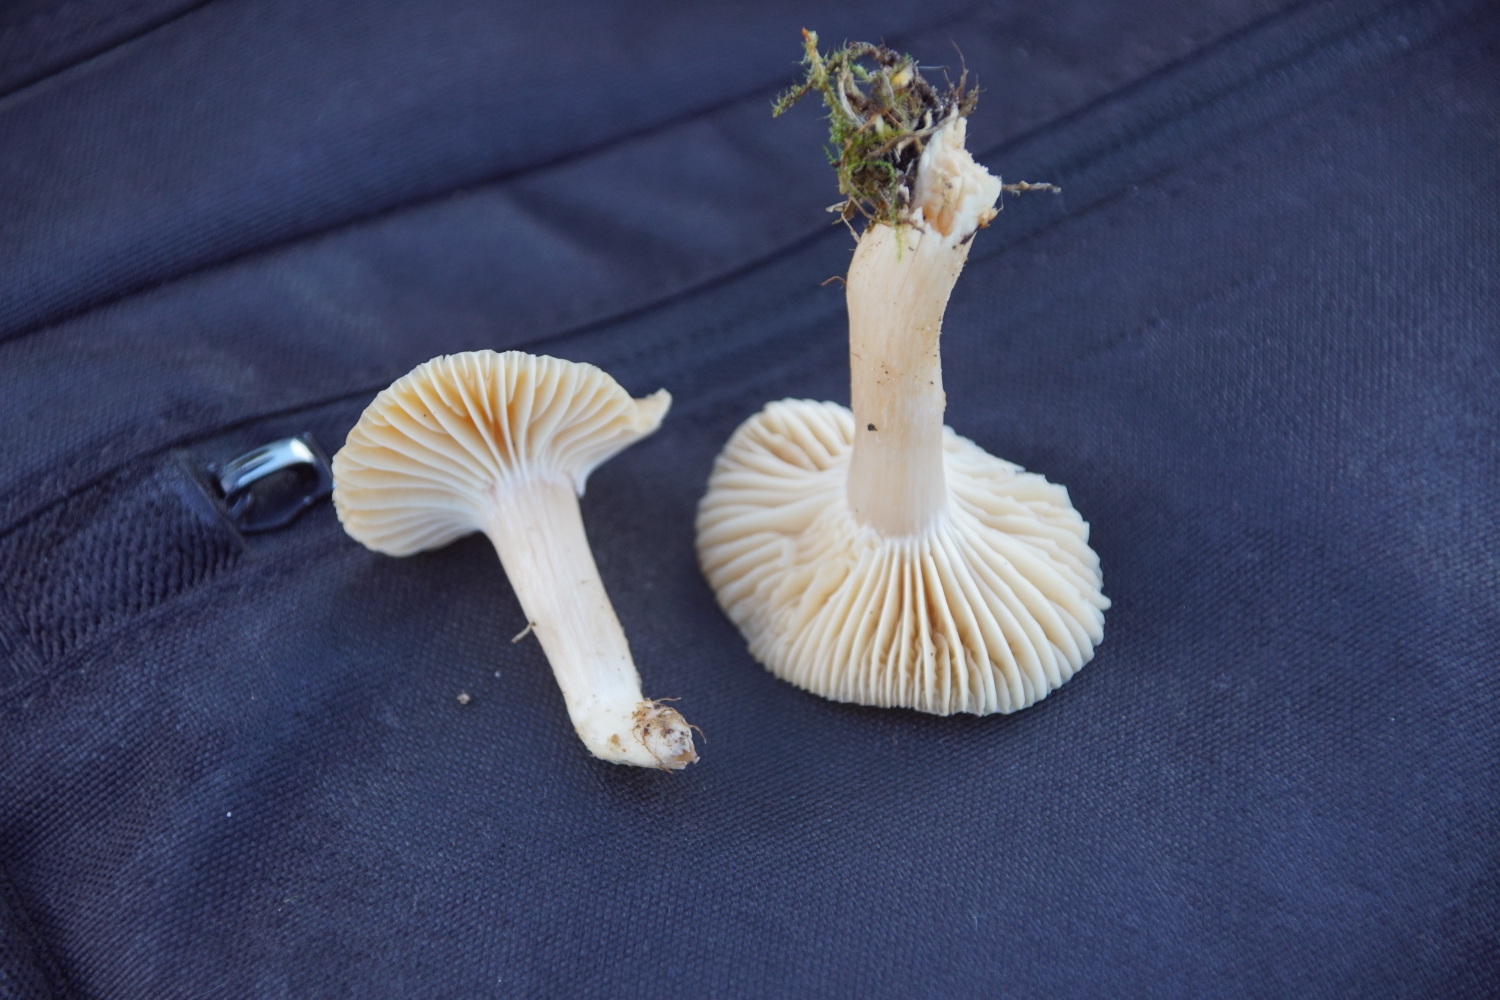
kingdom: Fungi
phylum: Basidiomycota
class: Agaricomycetes
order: Agaricales
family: Hygrophoraceae
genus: Cuphophyllus
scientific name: Cuphophyllus pratensis
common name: eng-vokshat
